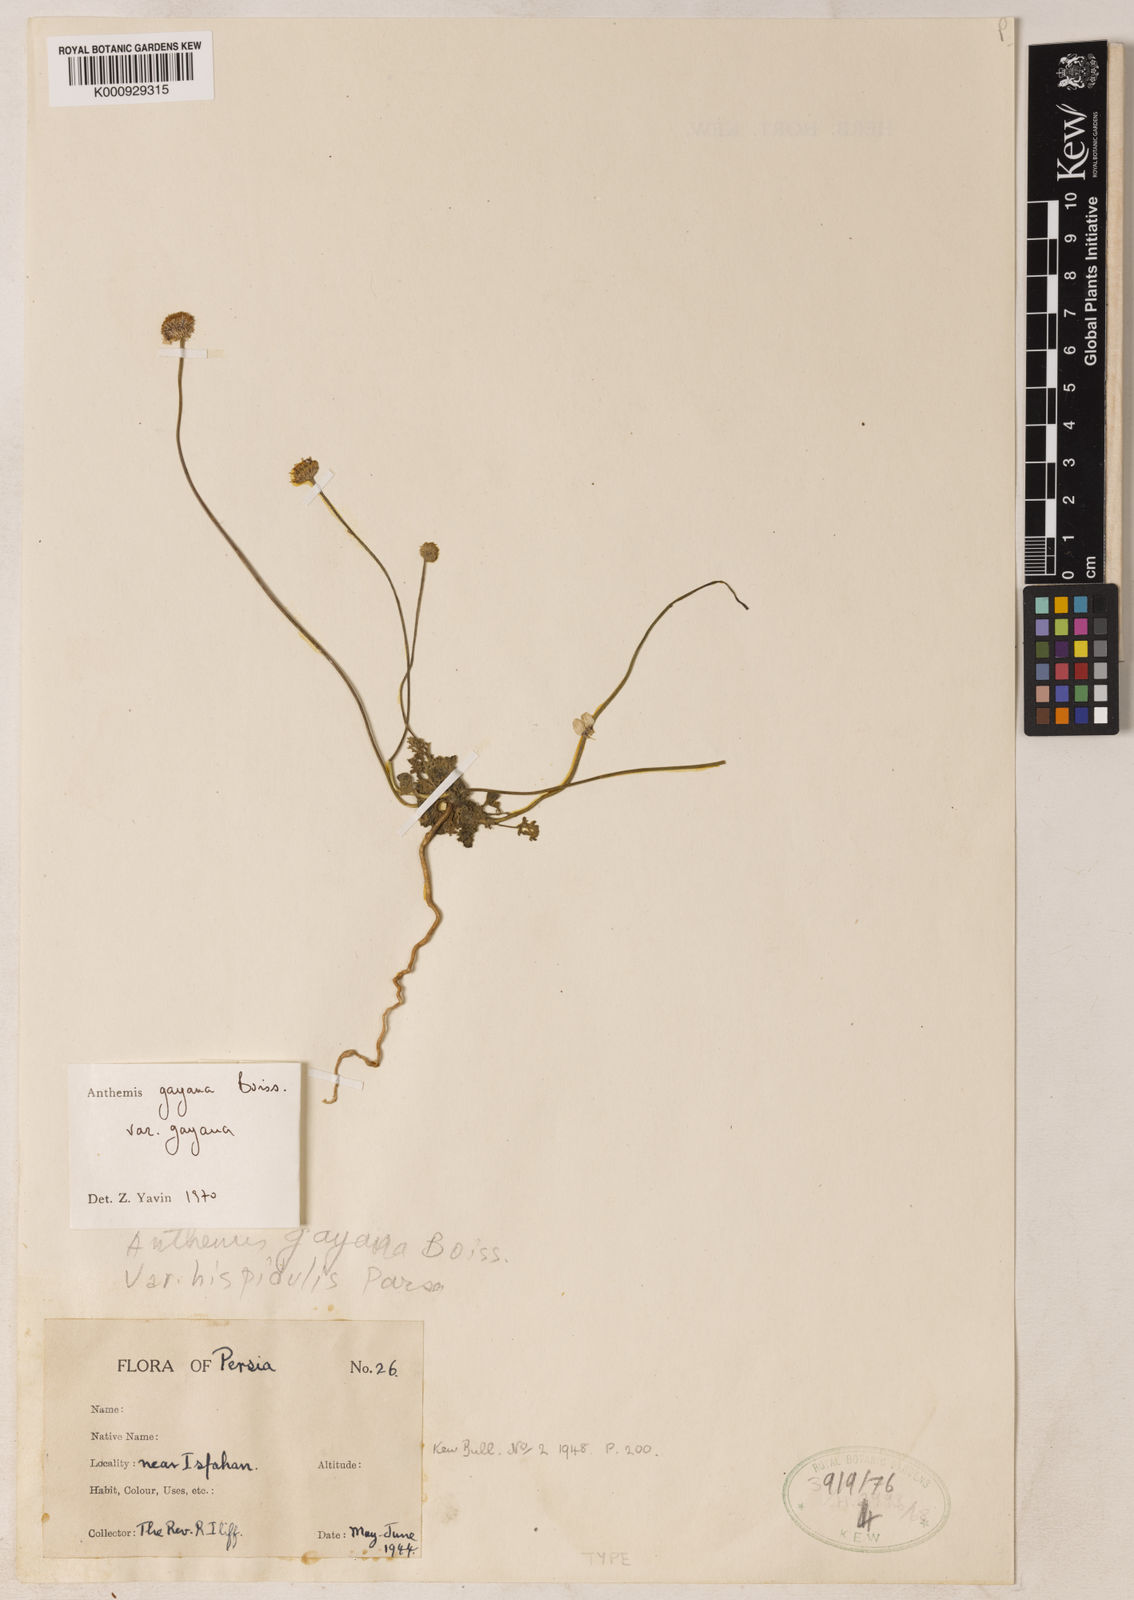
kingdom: Plantae
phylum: Tracheophyta
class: Magnoliopsida
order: Asterales
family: Asteraceae
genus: Anthemis
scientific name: Anthemis odontostephana
